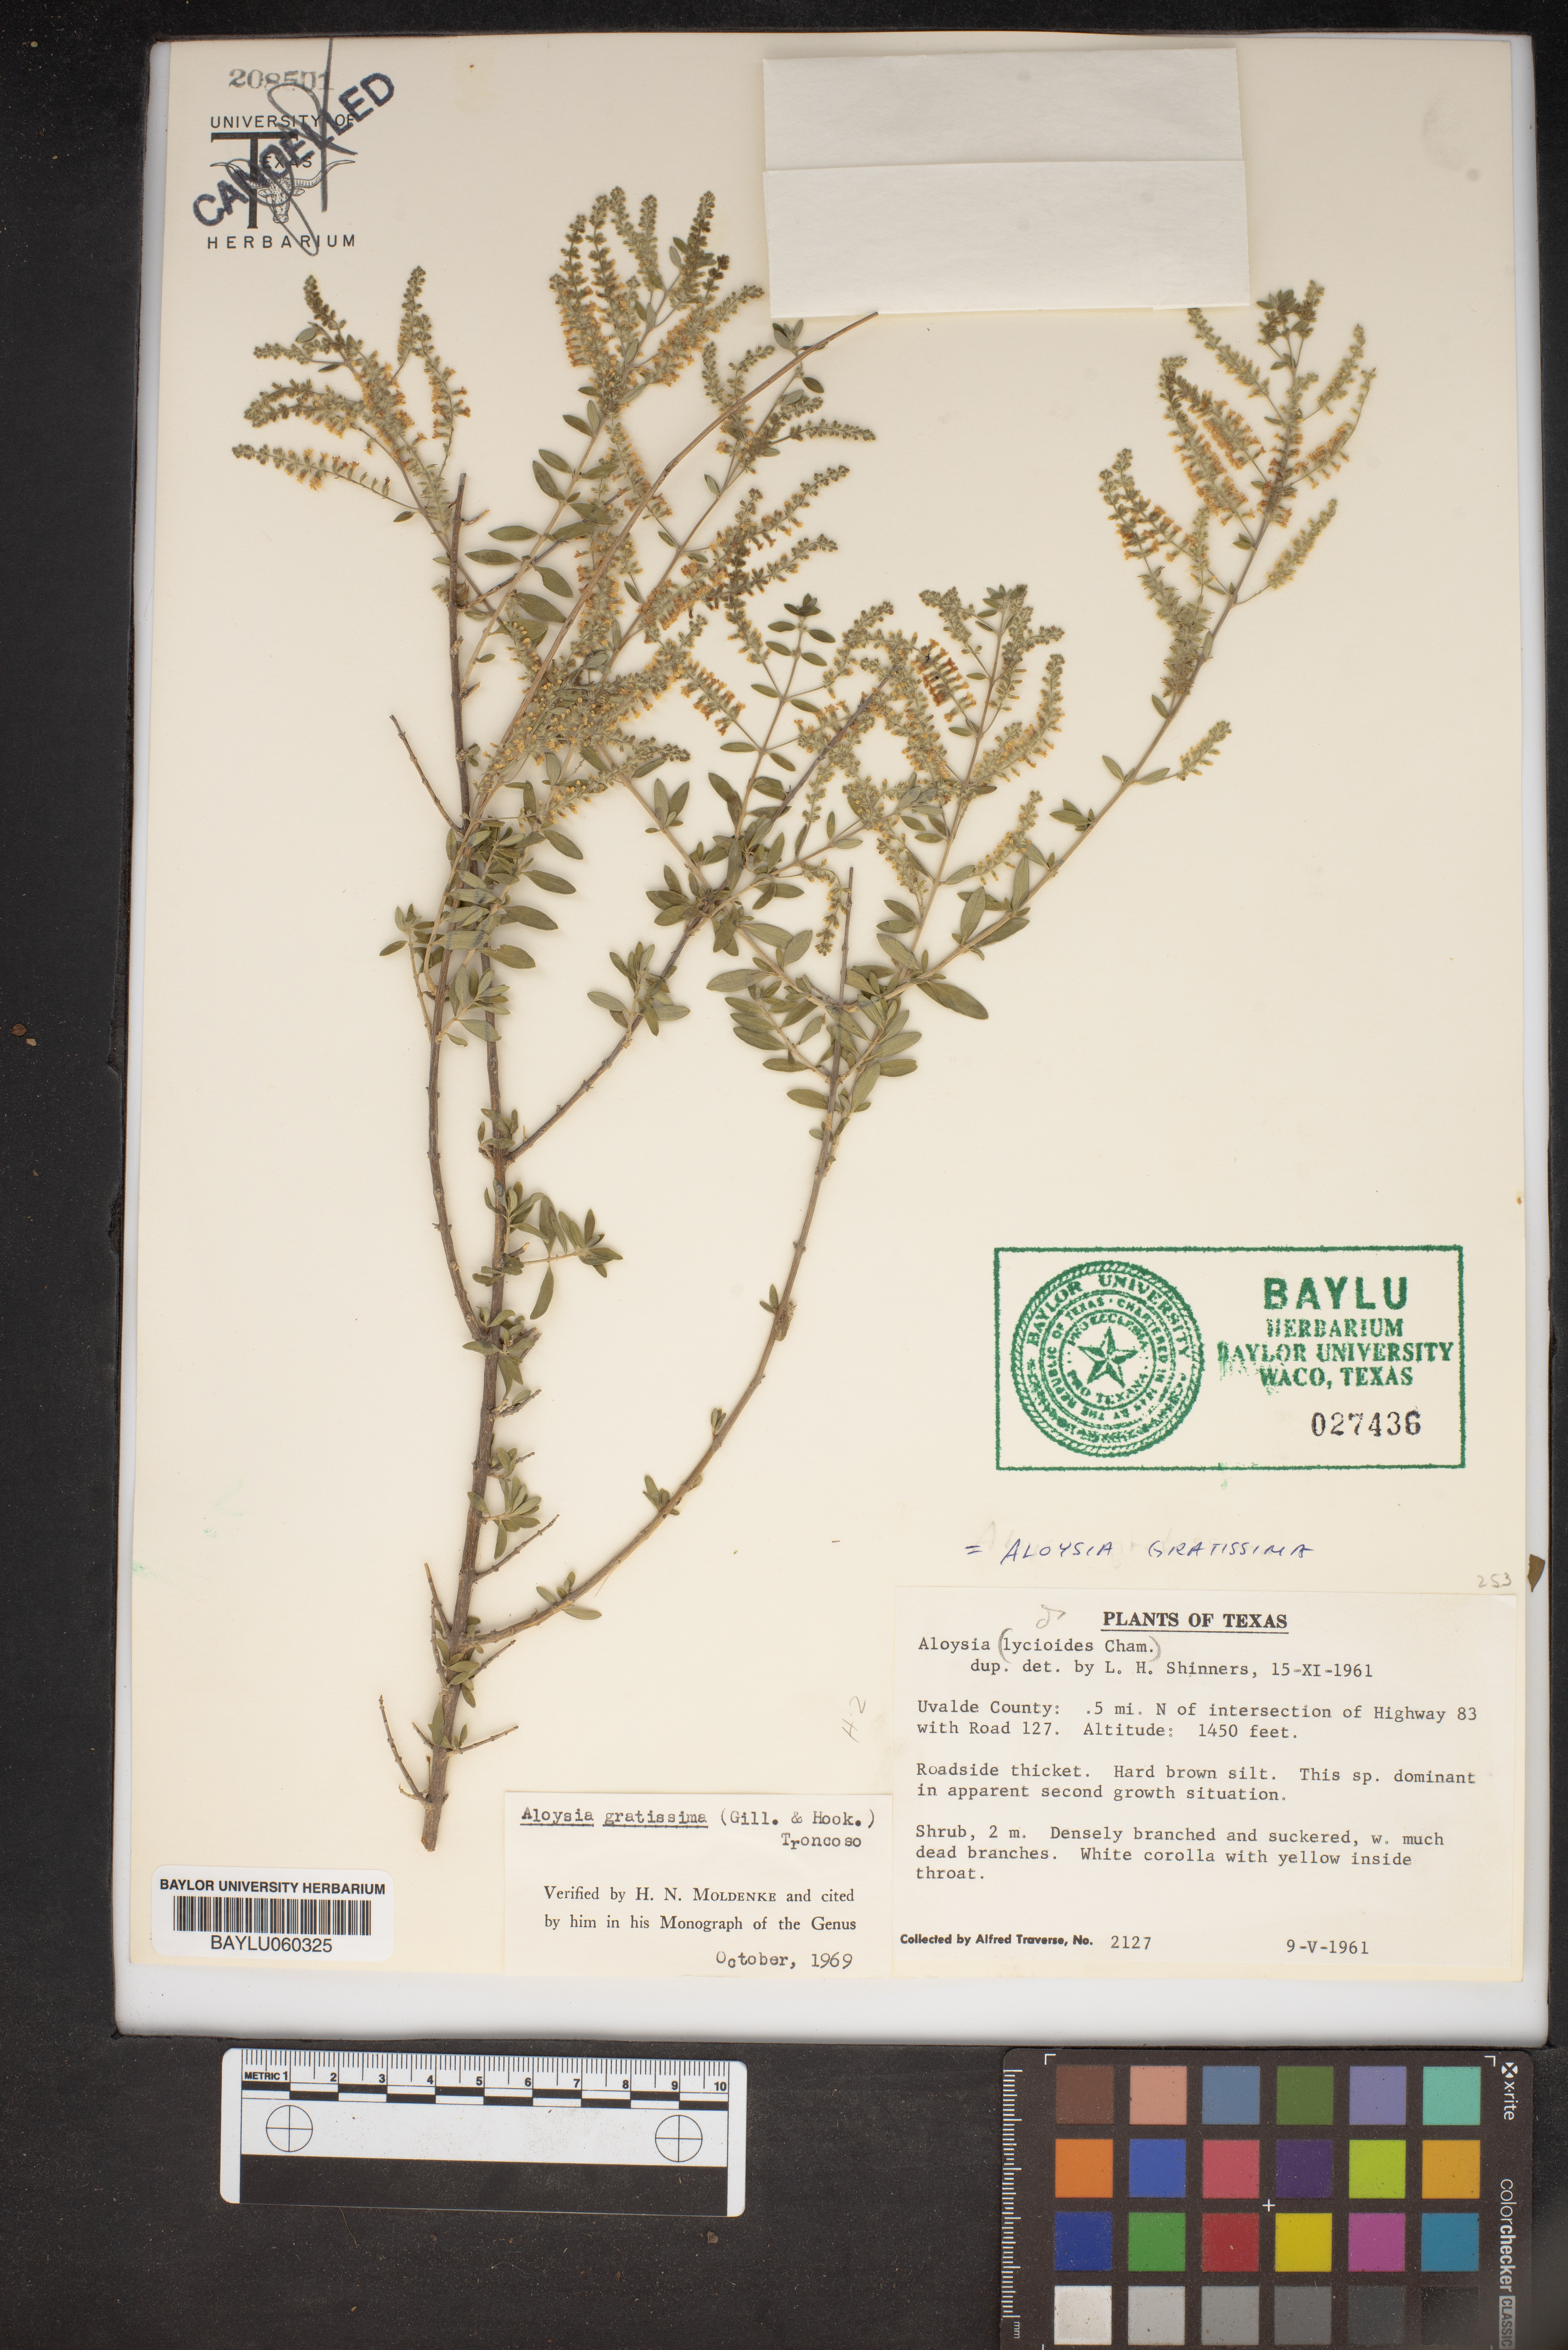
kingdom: Plantae
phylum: Tracheophyta
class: Magnoliopsida
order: Lamiales
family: Verbenaceae
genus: Aloysia
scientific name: Aloysia gratissima
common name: Common bee-brush
